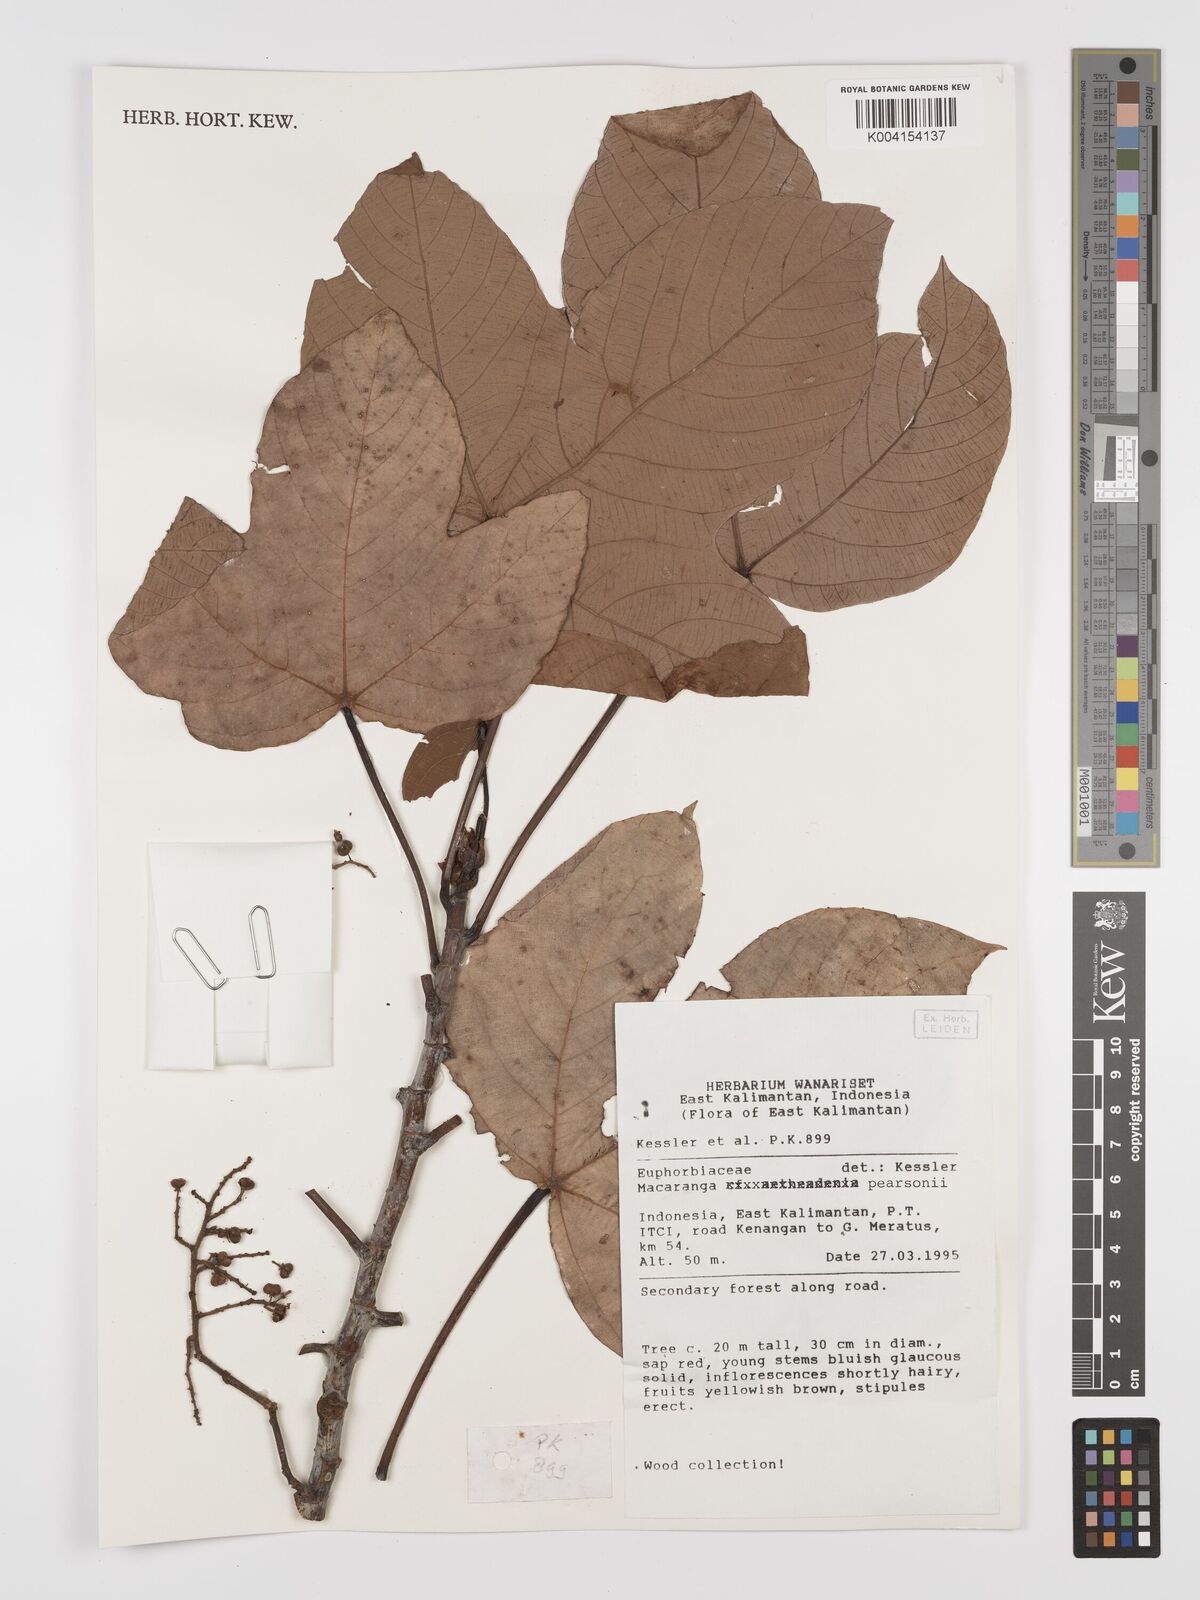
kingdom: Plantae
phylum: Tracheophyta
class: Magnoliopsida
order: Malpighiales
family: Euphorbiaceae
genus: Macaranga
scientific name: Macaranga pearsonii
